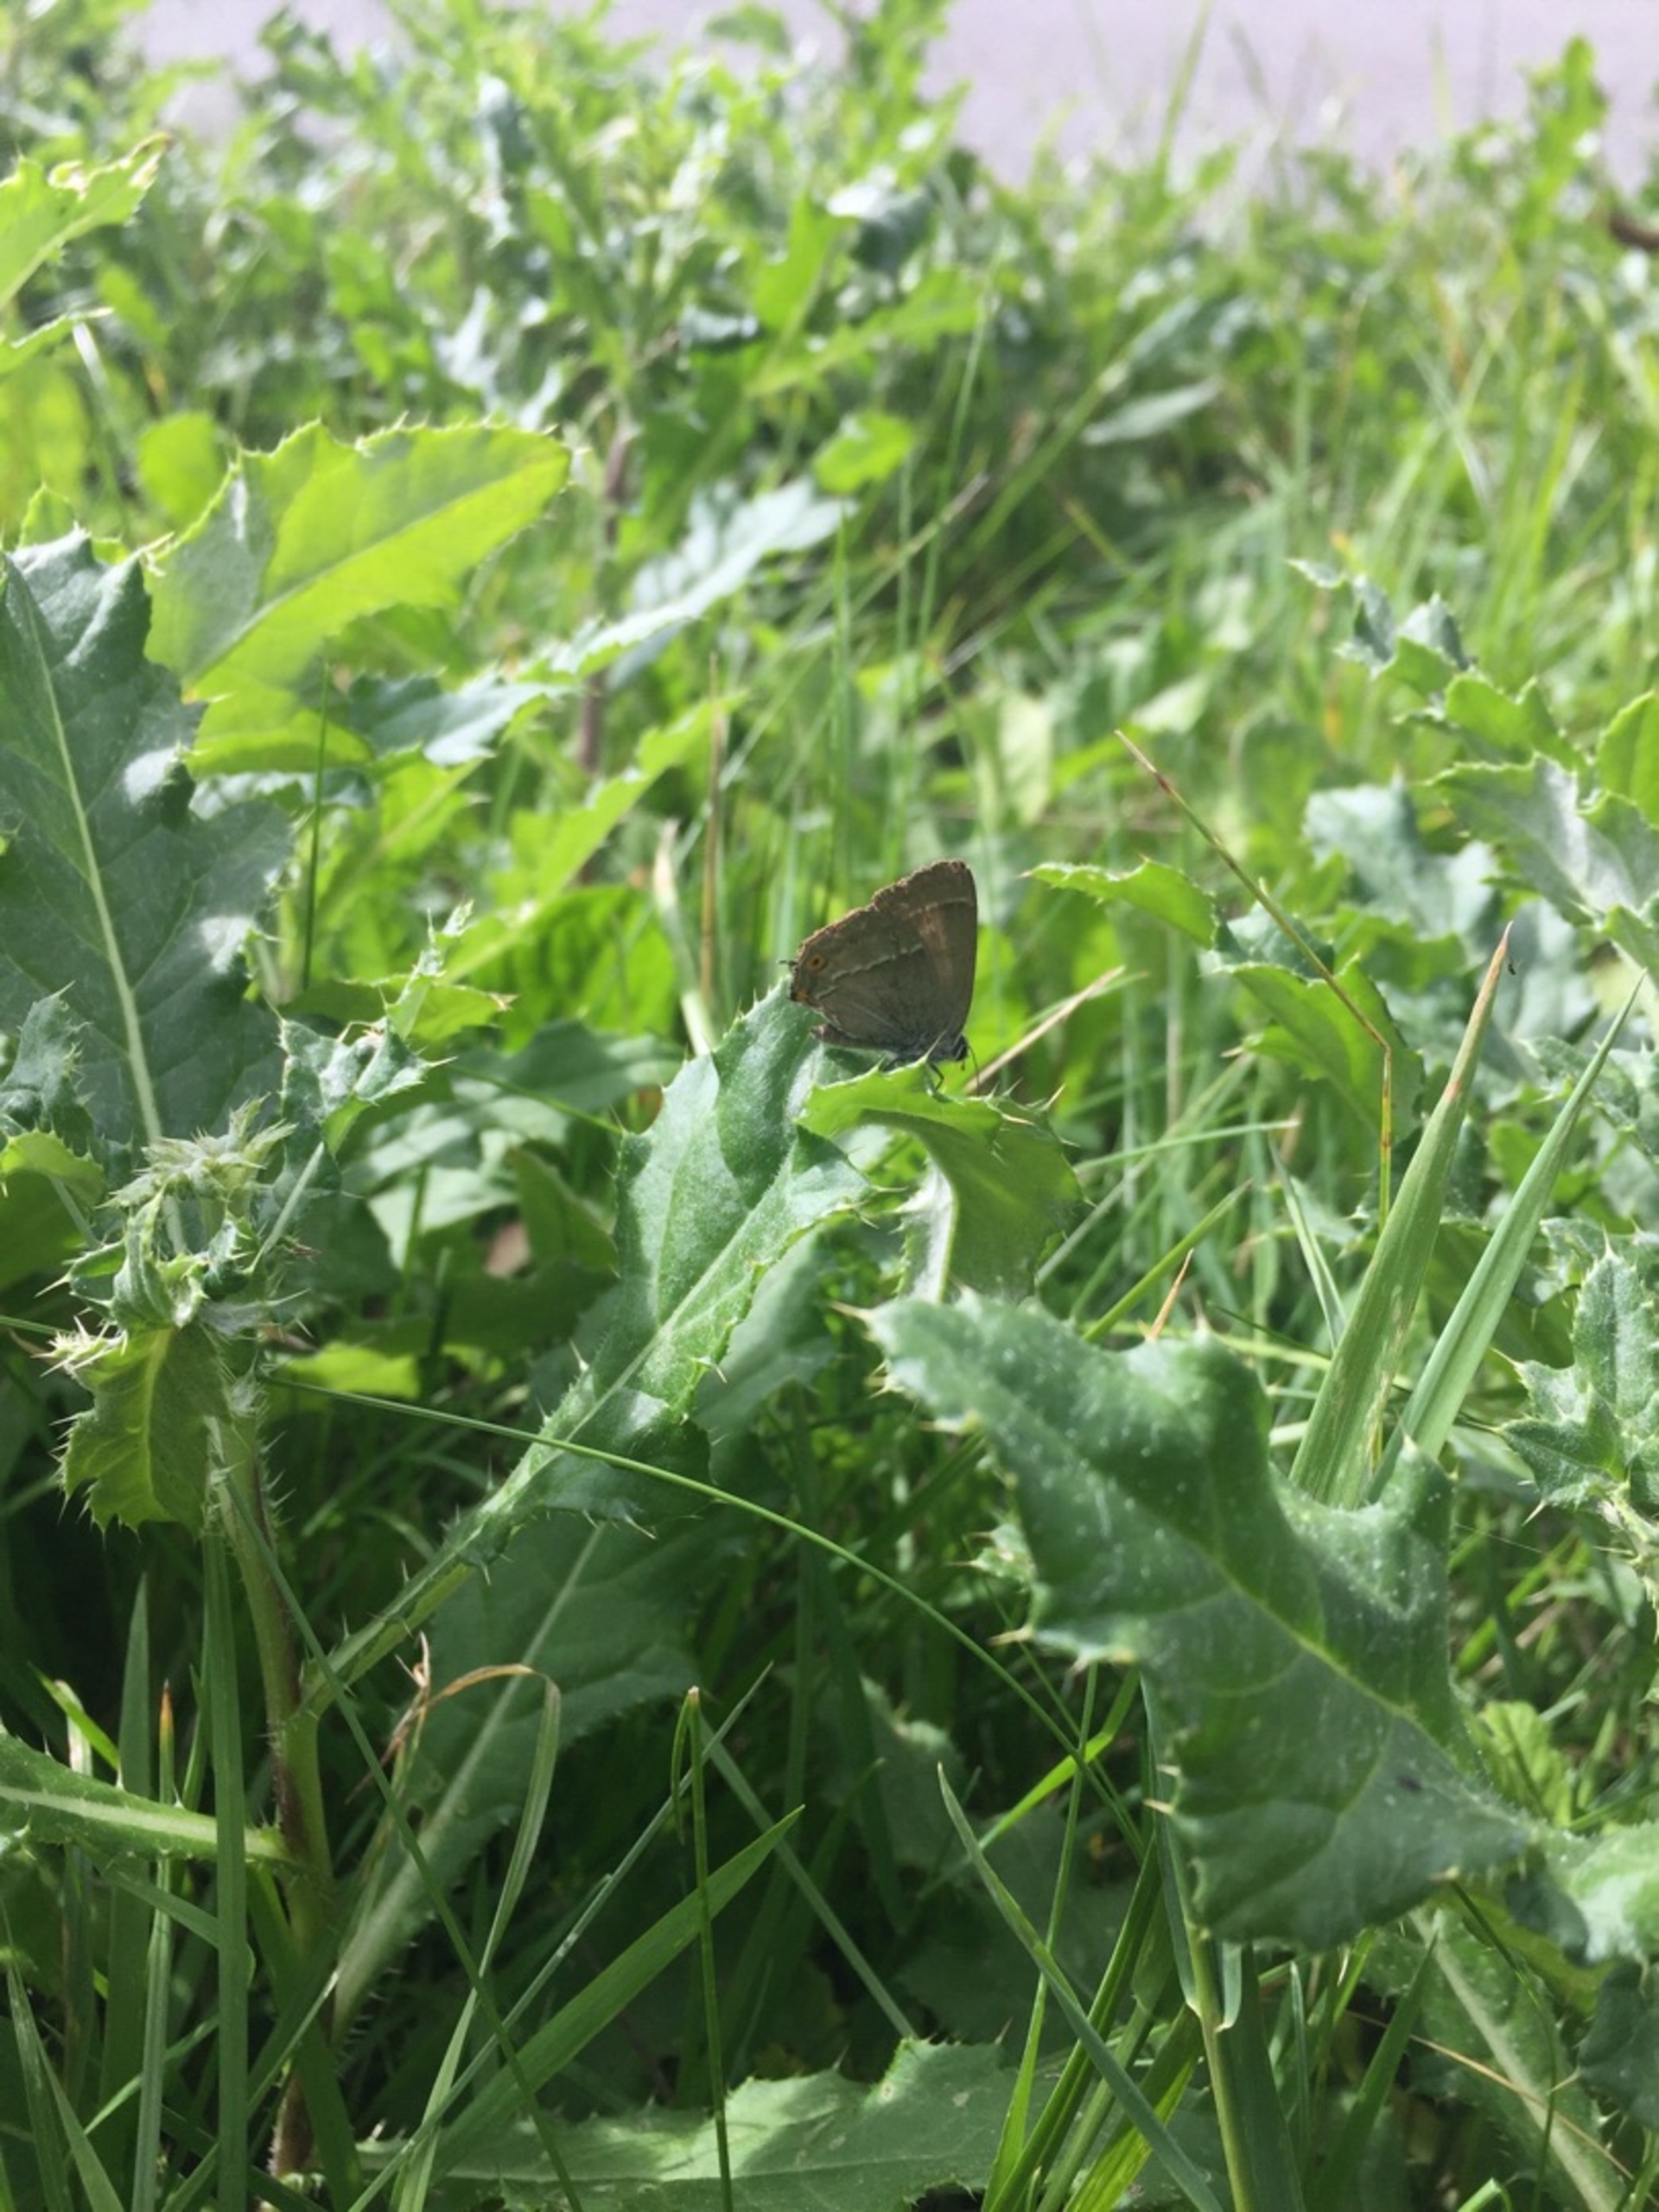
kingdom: Animalia
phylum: Arthropoda
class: Insecta
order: Lepidoptera
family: Lycaenidae
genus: Quercusia
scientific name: Quercusia quercus
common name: Blåhale
